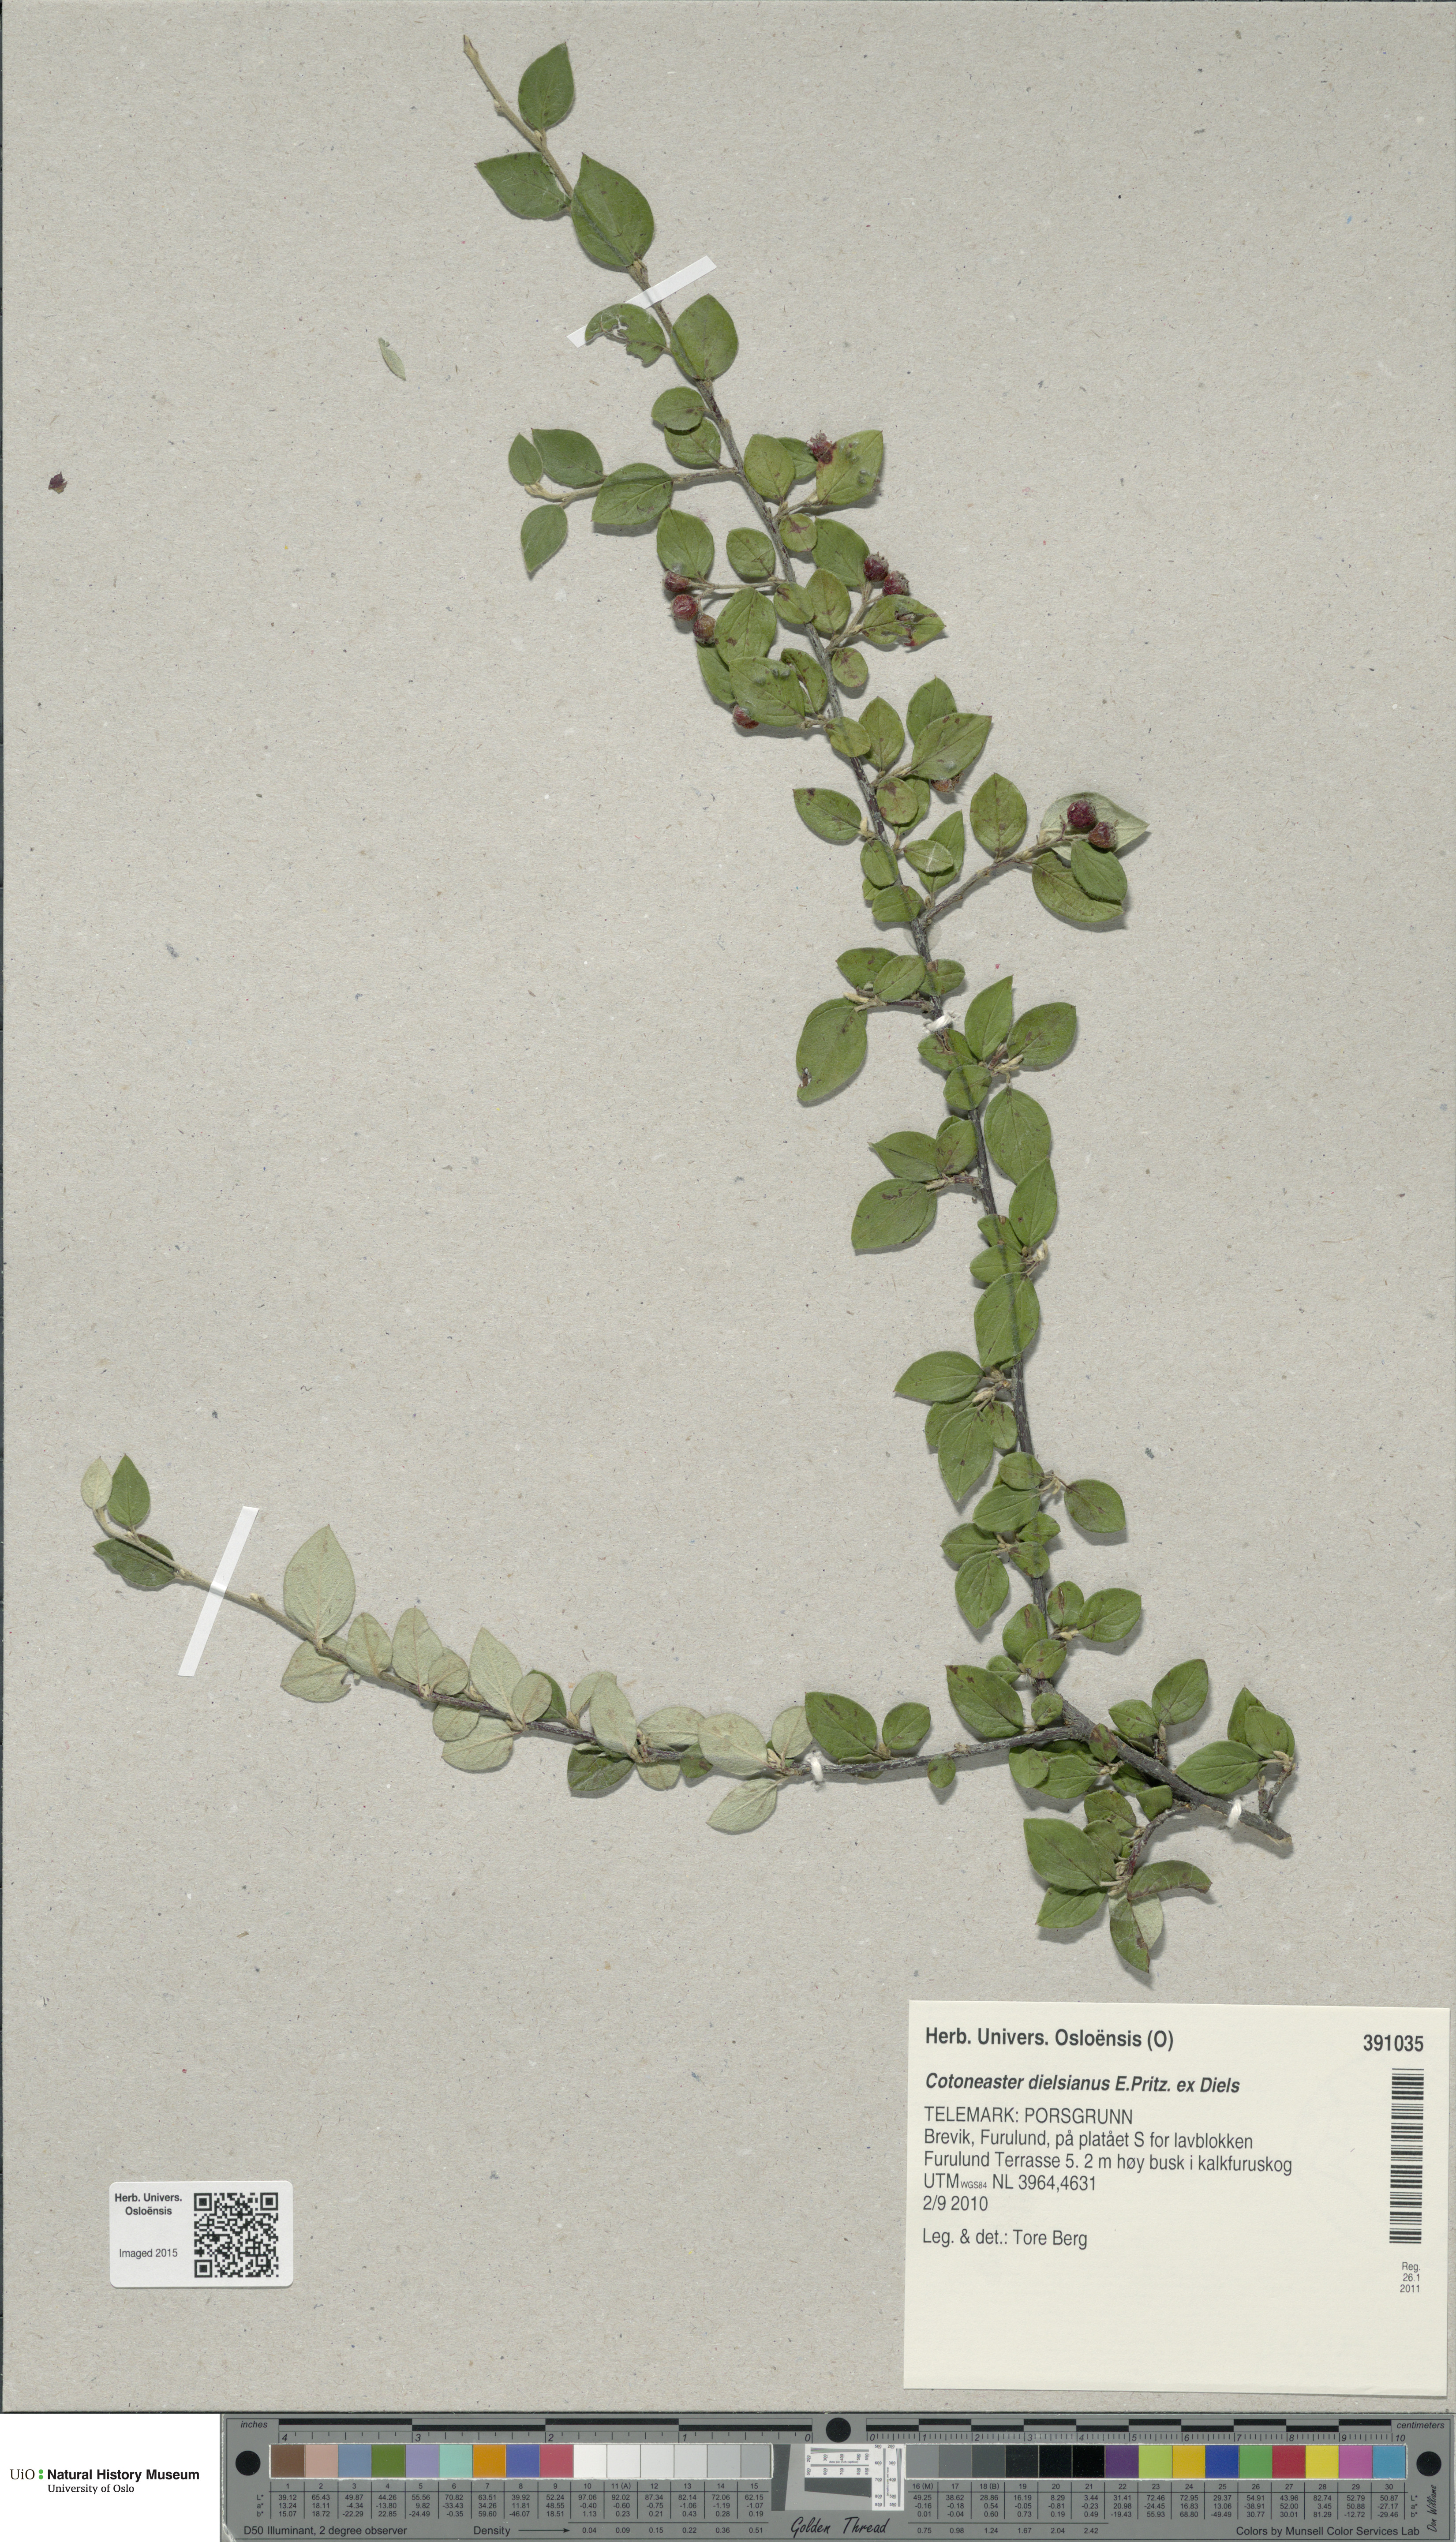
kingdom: Plantae
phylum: Tracheophyta
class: Magnoliopsida
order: Rosales
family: Rosaceae
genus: Cotoneaster
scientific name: Cotoneaster dielsianus
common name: Diels's cotoneaster
